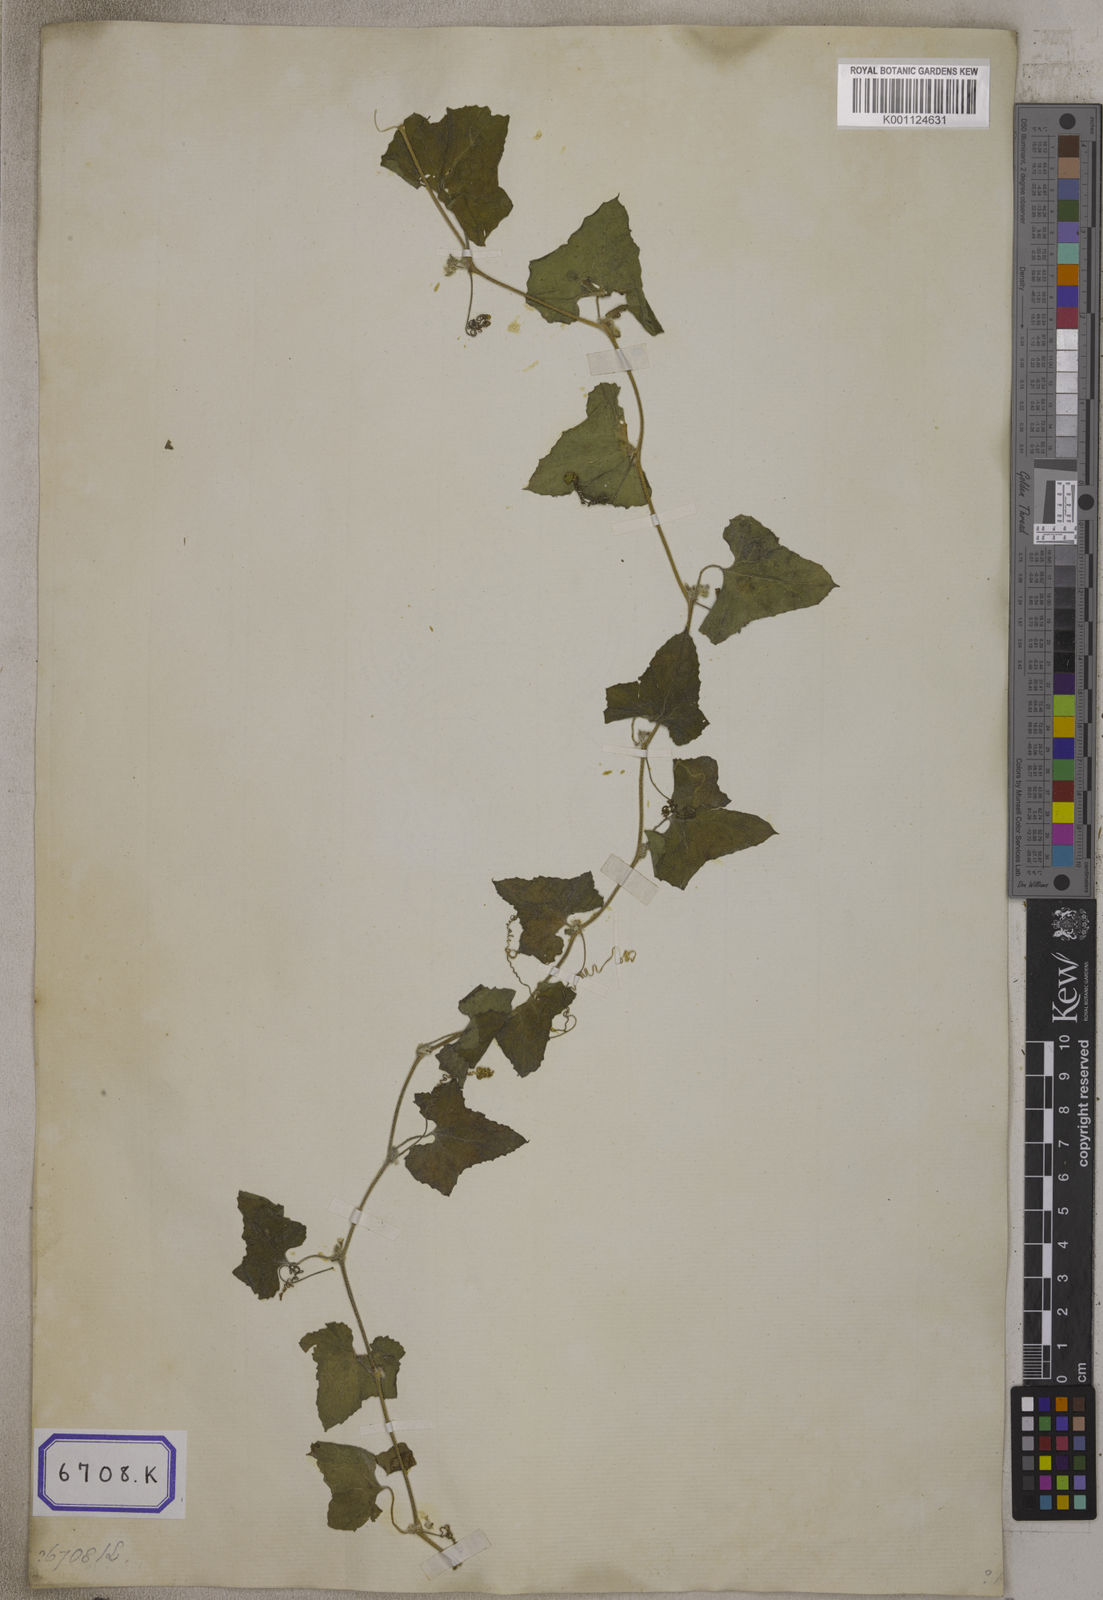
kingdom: Plantae
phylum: Tracheophyta
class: Magnoliopsida
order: Cucurbitales
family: Cucurbitaceae
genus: Bryonia
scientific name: Bryonia
